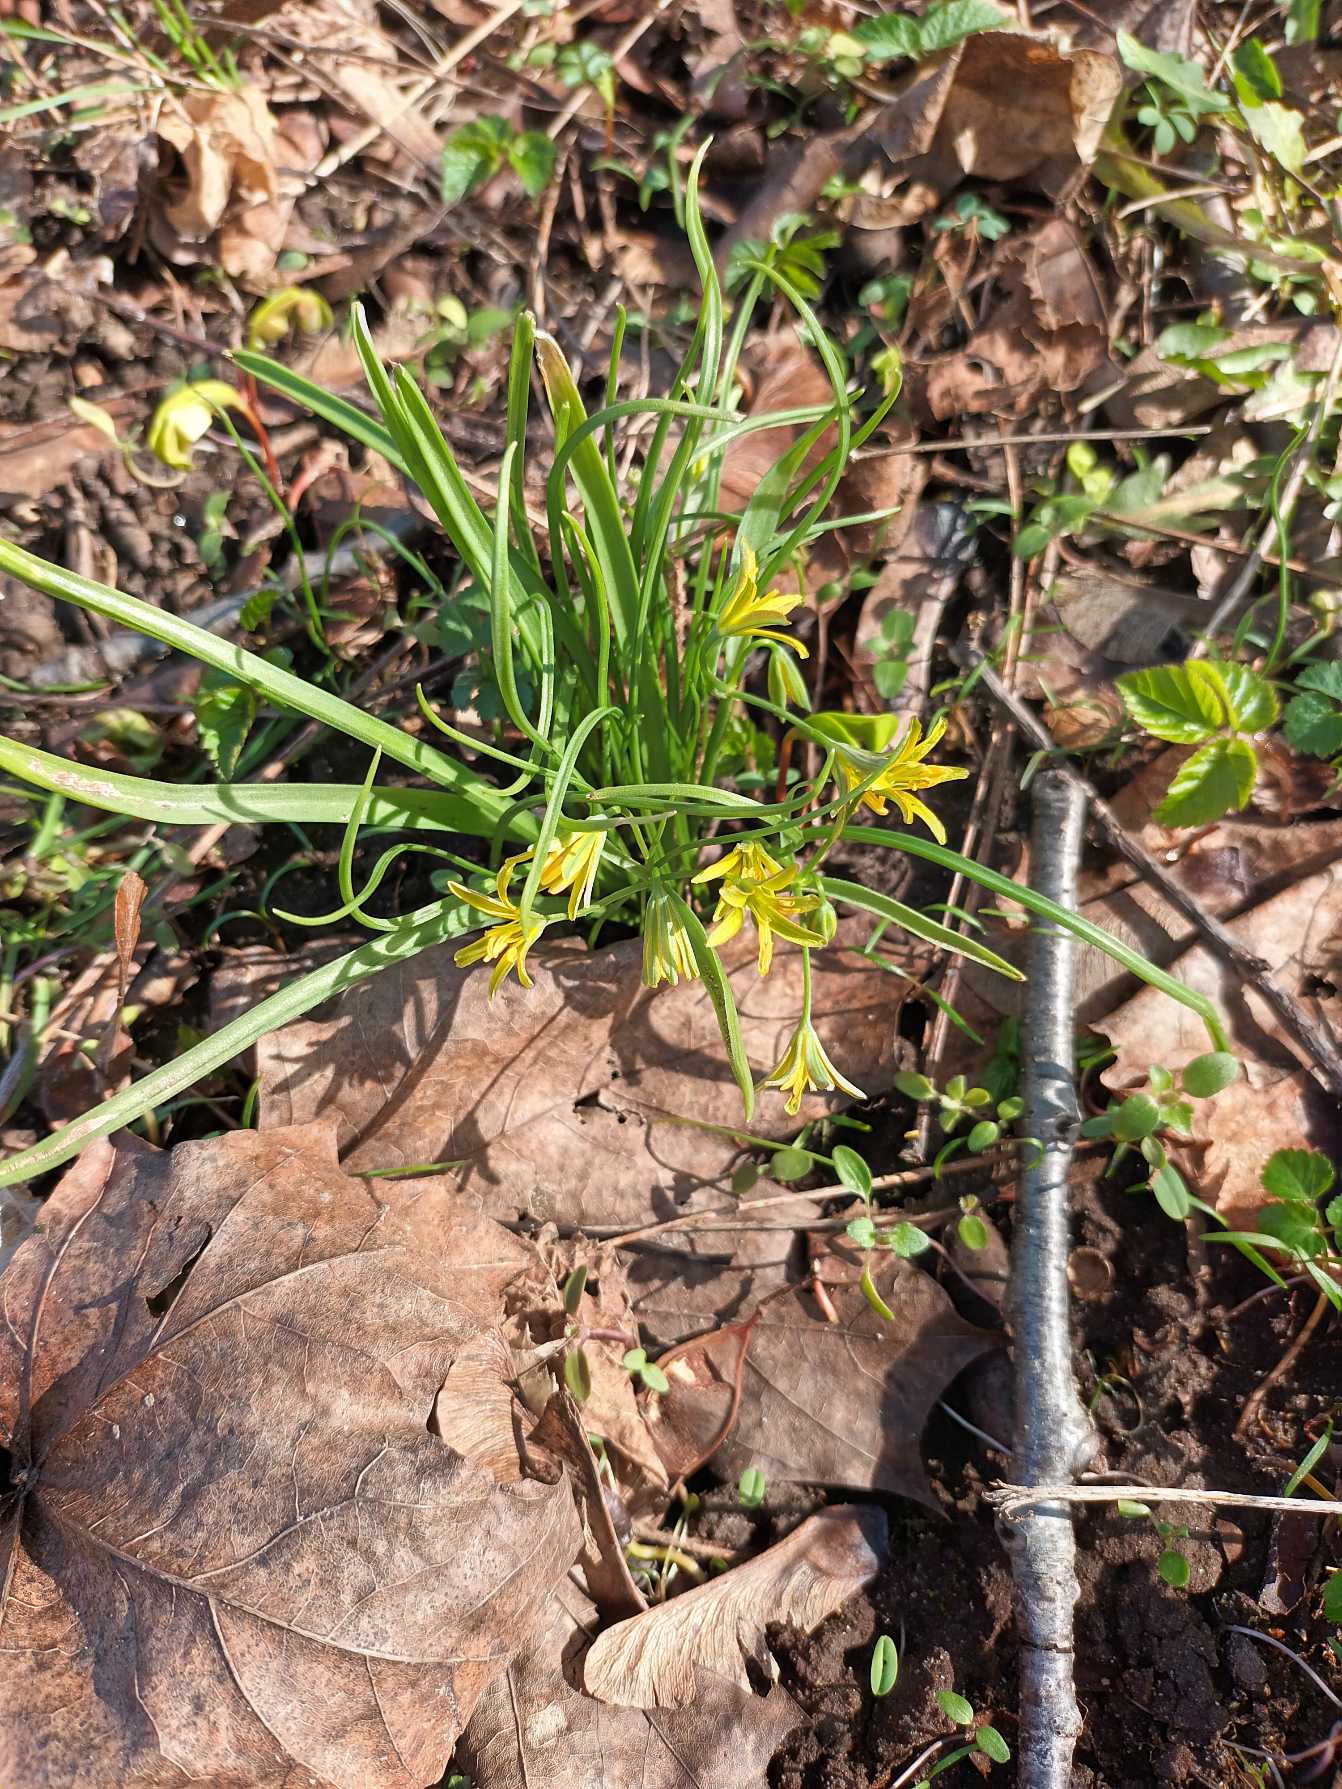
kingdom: Plantae
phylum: Tracheophyta
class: Liliopsida
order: Liliales
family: Liliaceae
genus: Gagea
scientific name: Gagea lutea
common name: Almindelig guldstjerne
